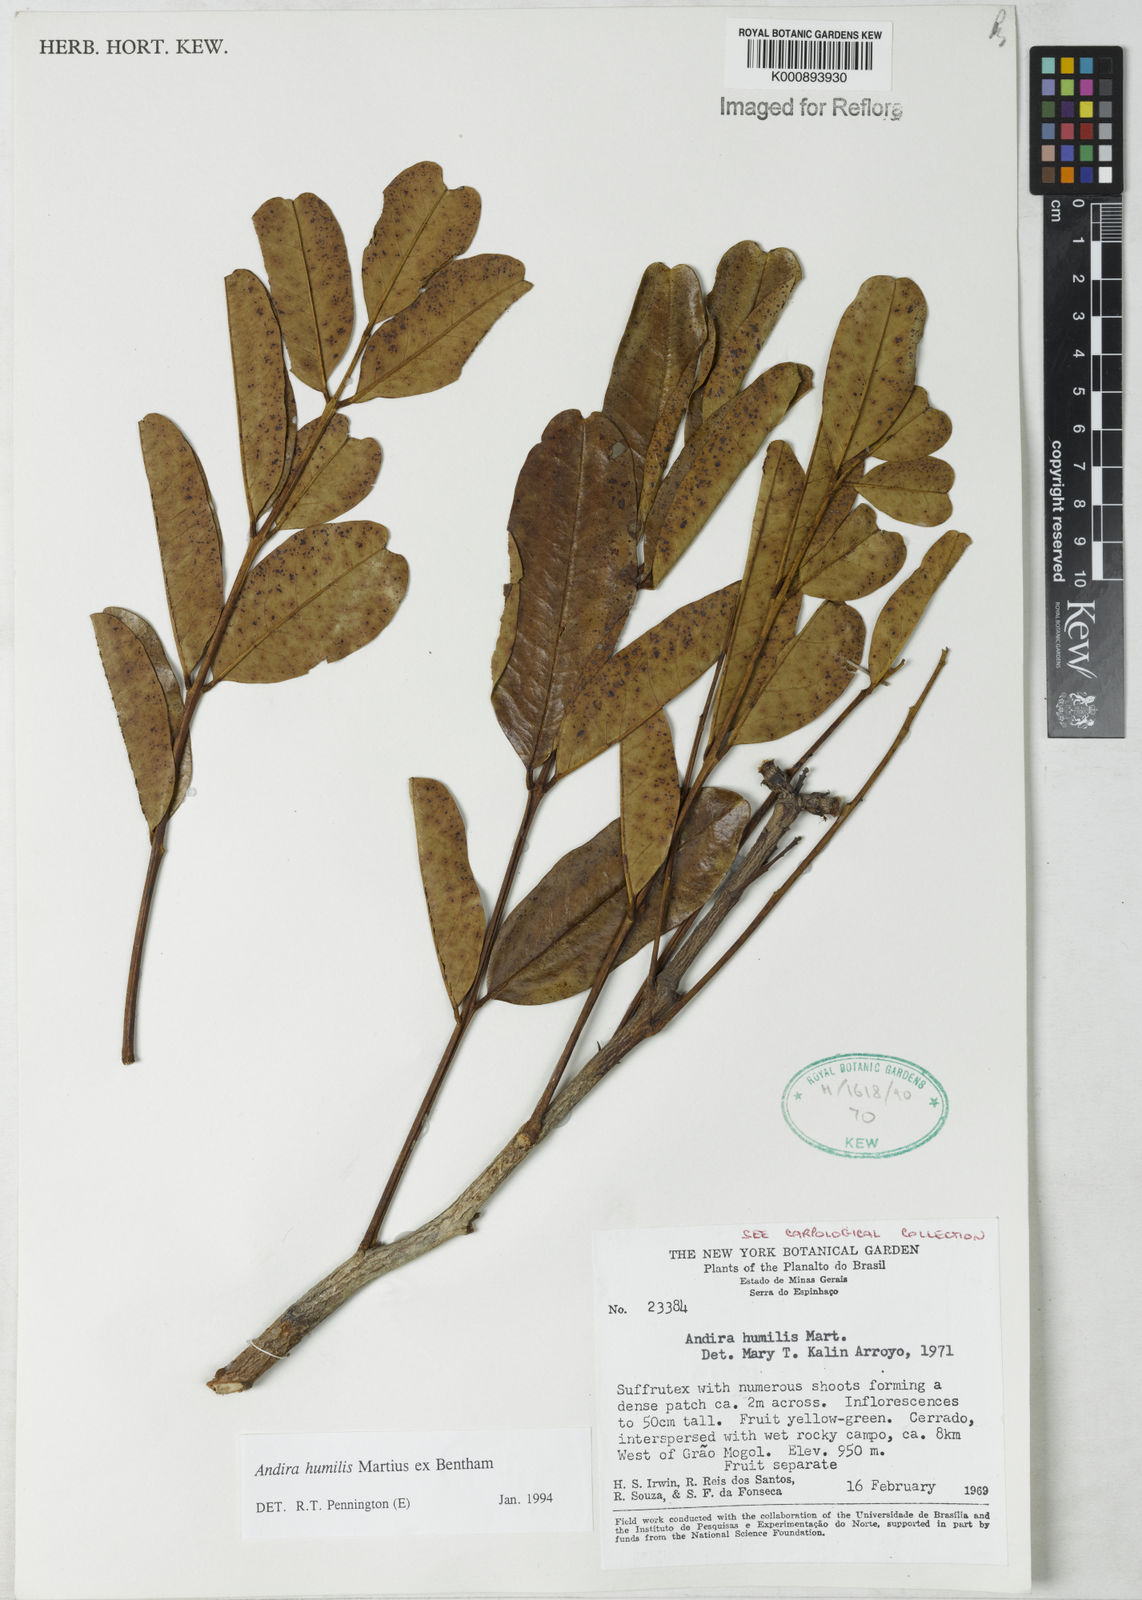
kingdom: Plantae
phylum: Tracheophyta
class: Magnoliopsida
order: Fabales
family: Fabaceae
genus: Andira
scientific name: Andira humilis
